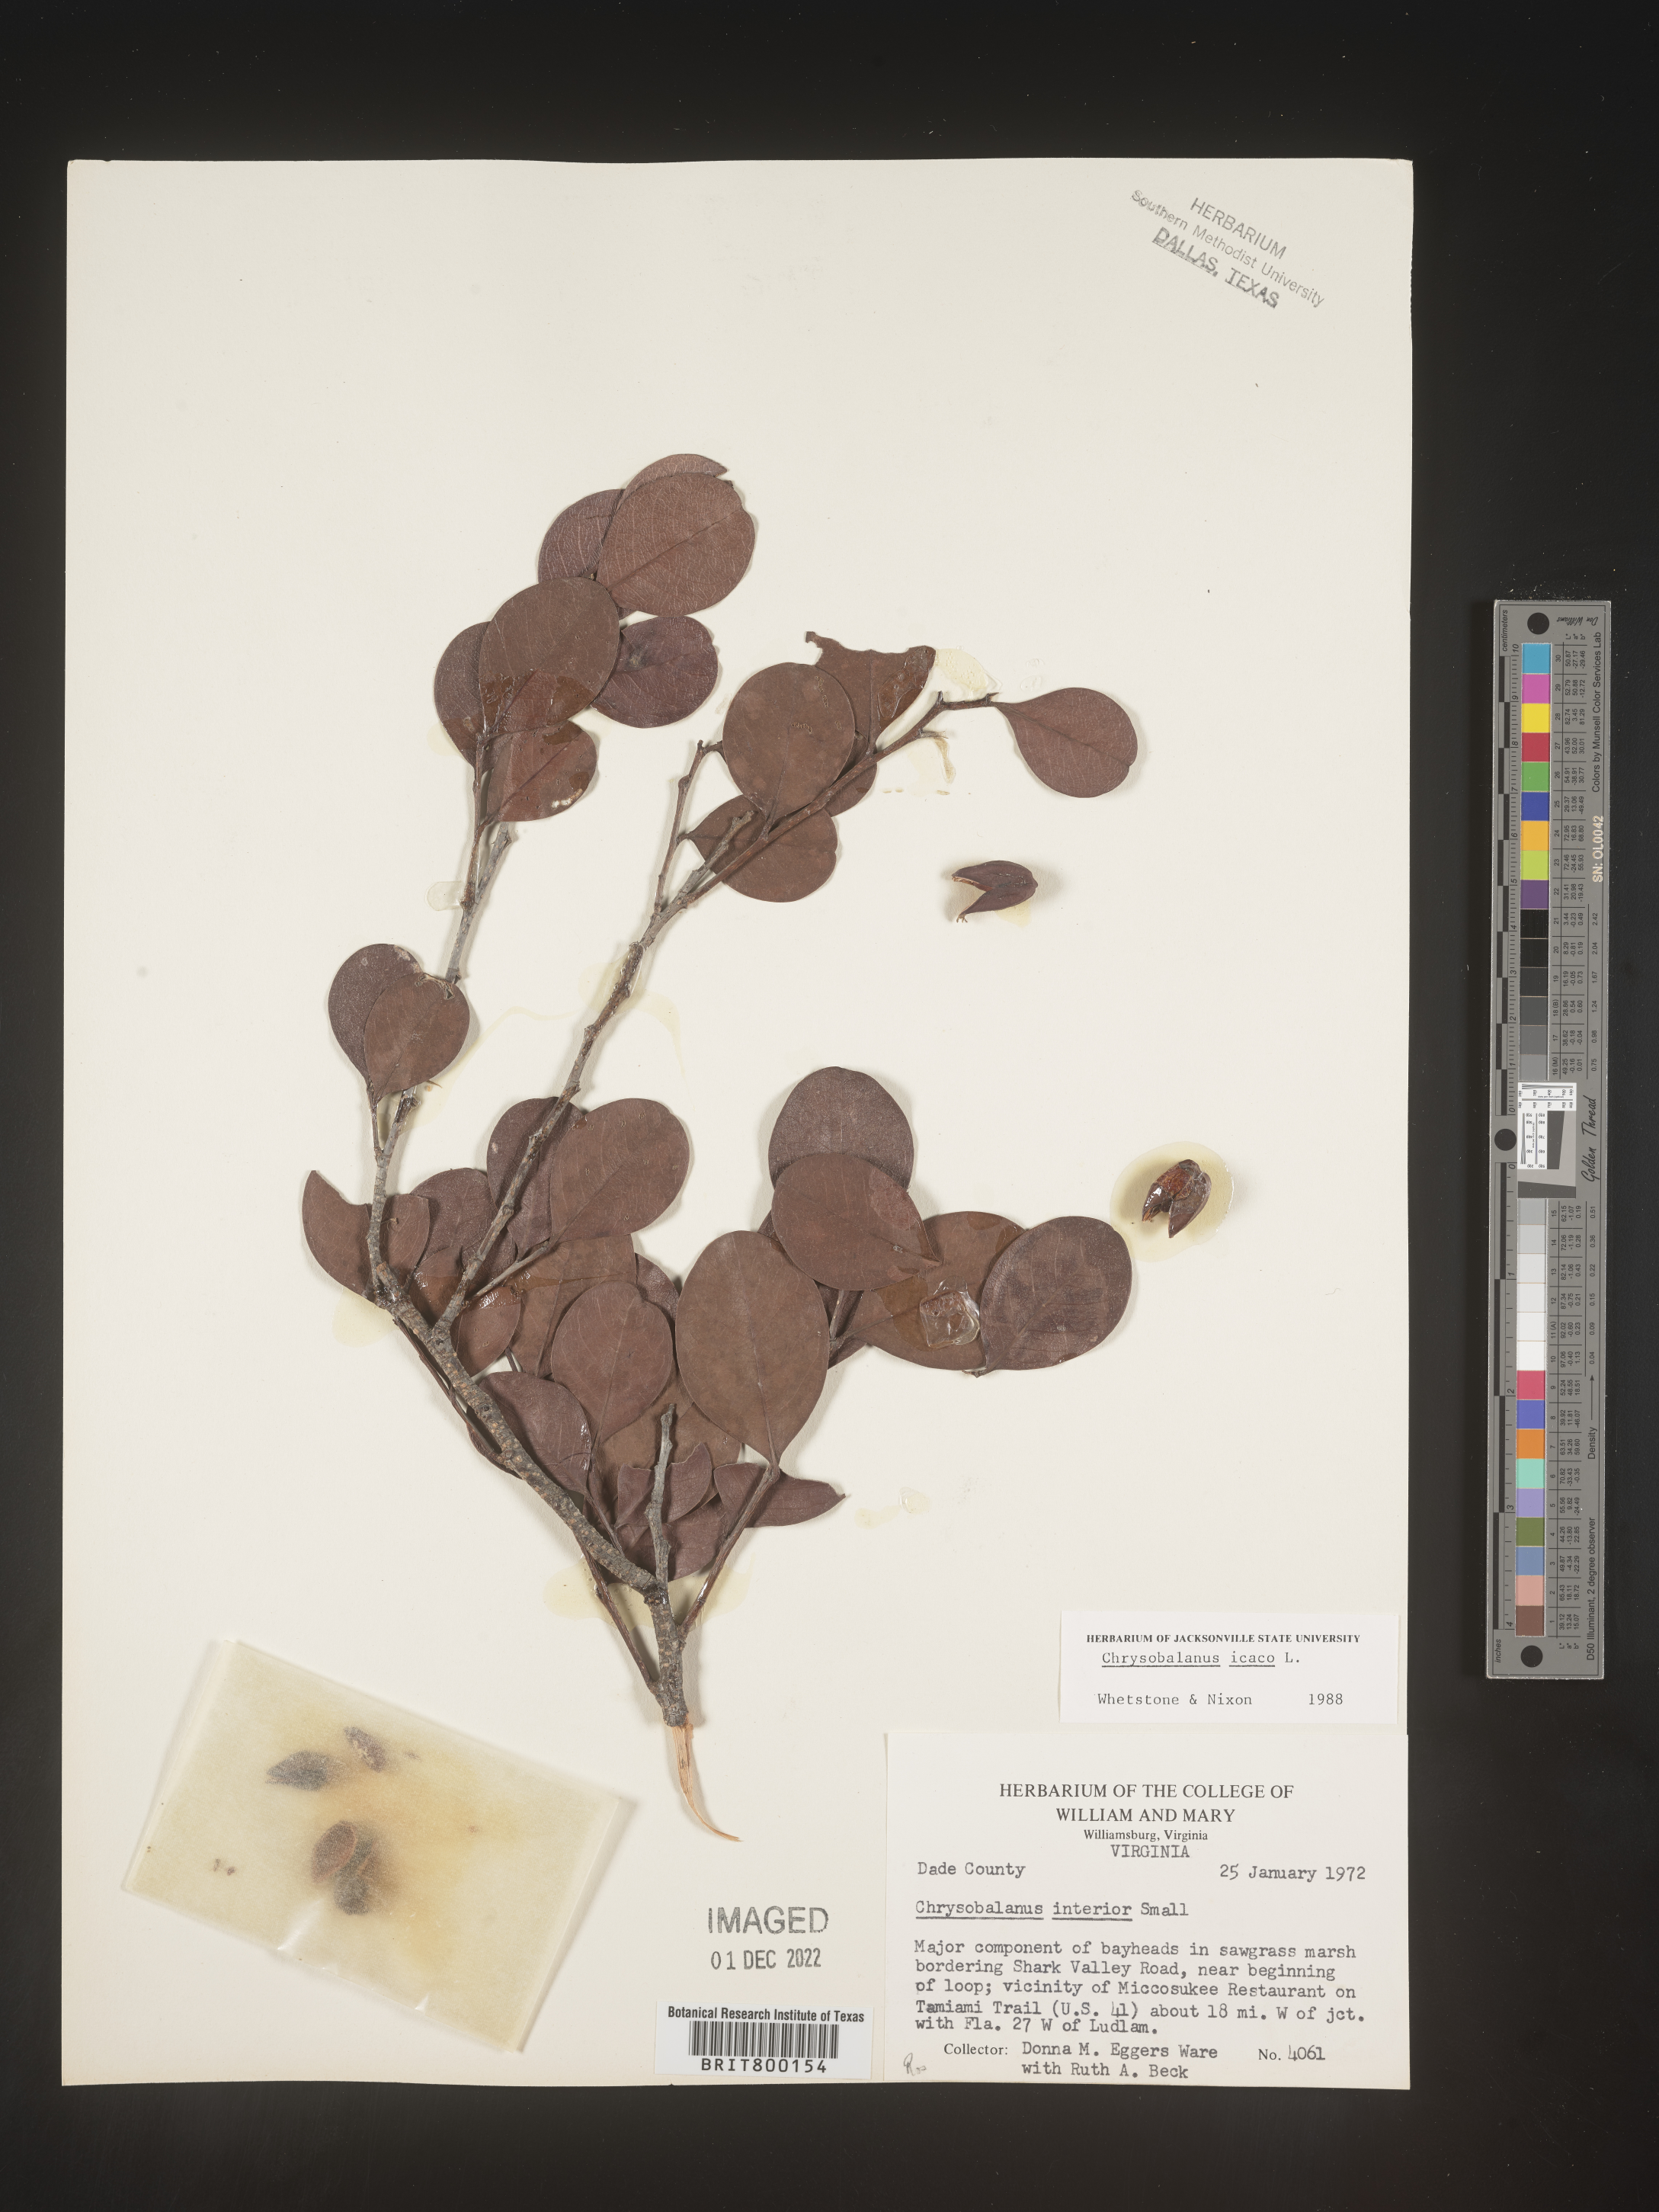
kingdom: Plantae
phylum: Tracheophyta
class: Magnoliopsida
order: Malpighiales
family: Chrysobalanaceae
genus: Chrysobalanus
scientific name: Chrysobalanus icaco
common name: Coco plum
